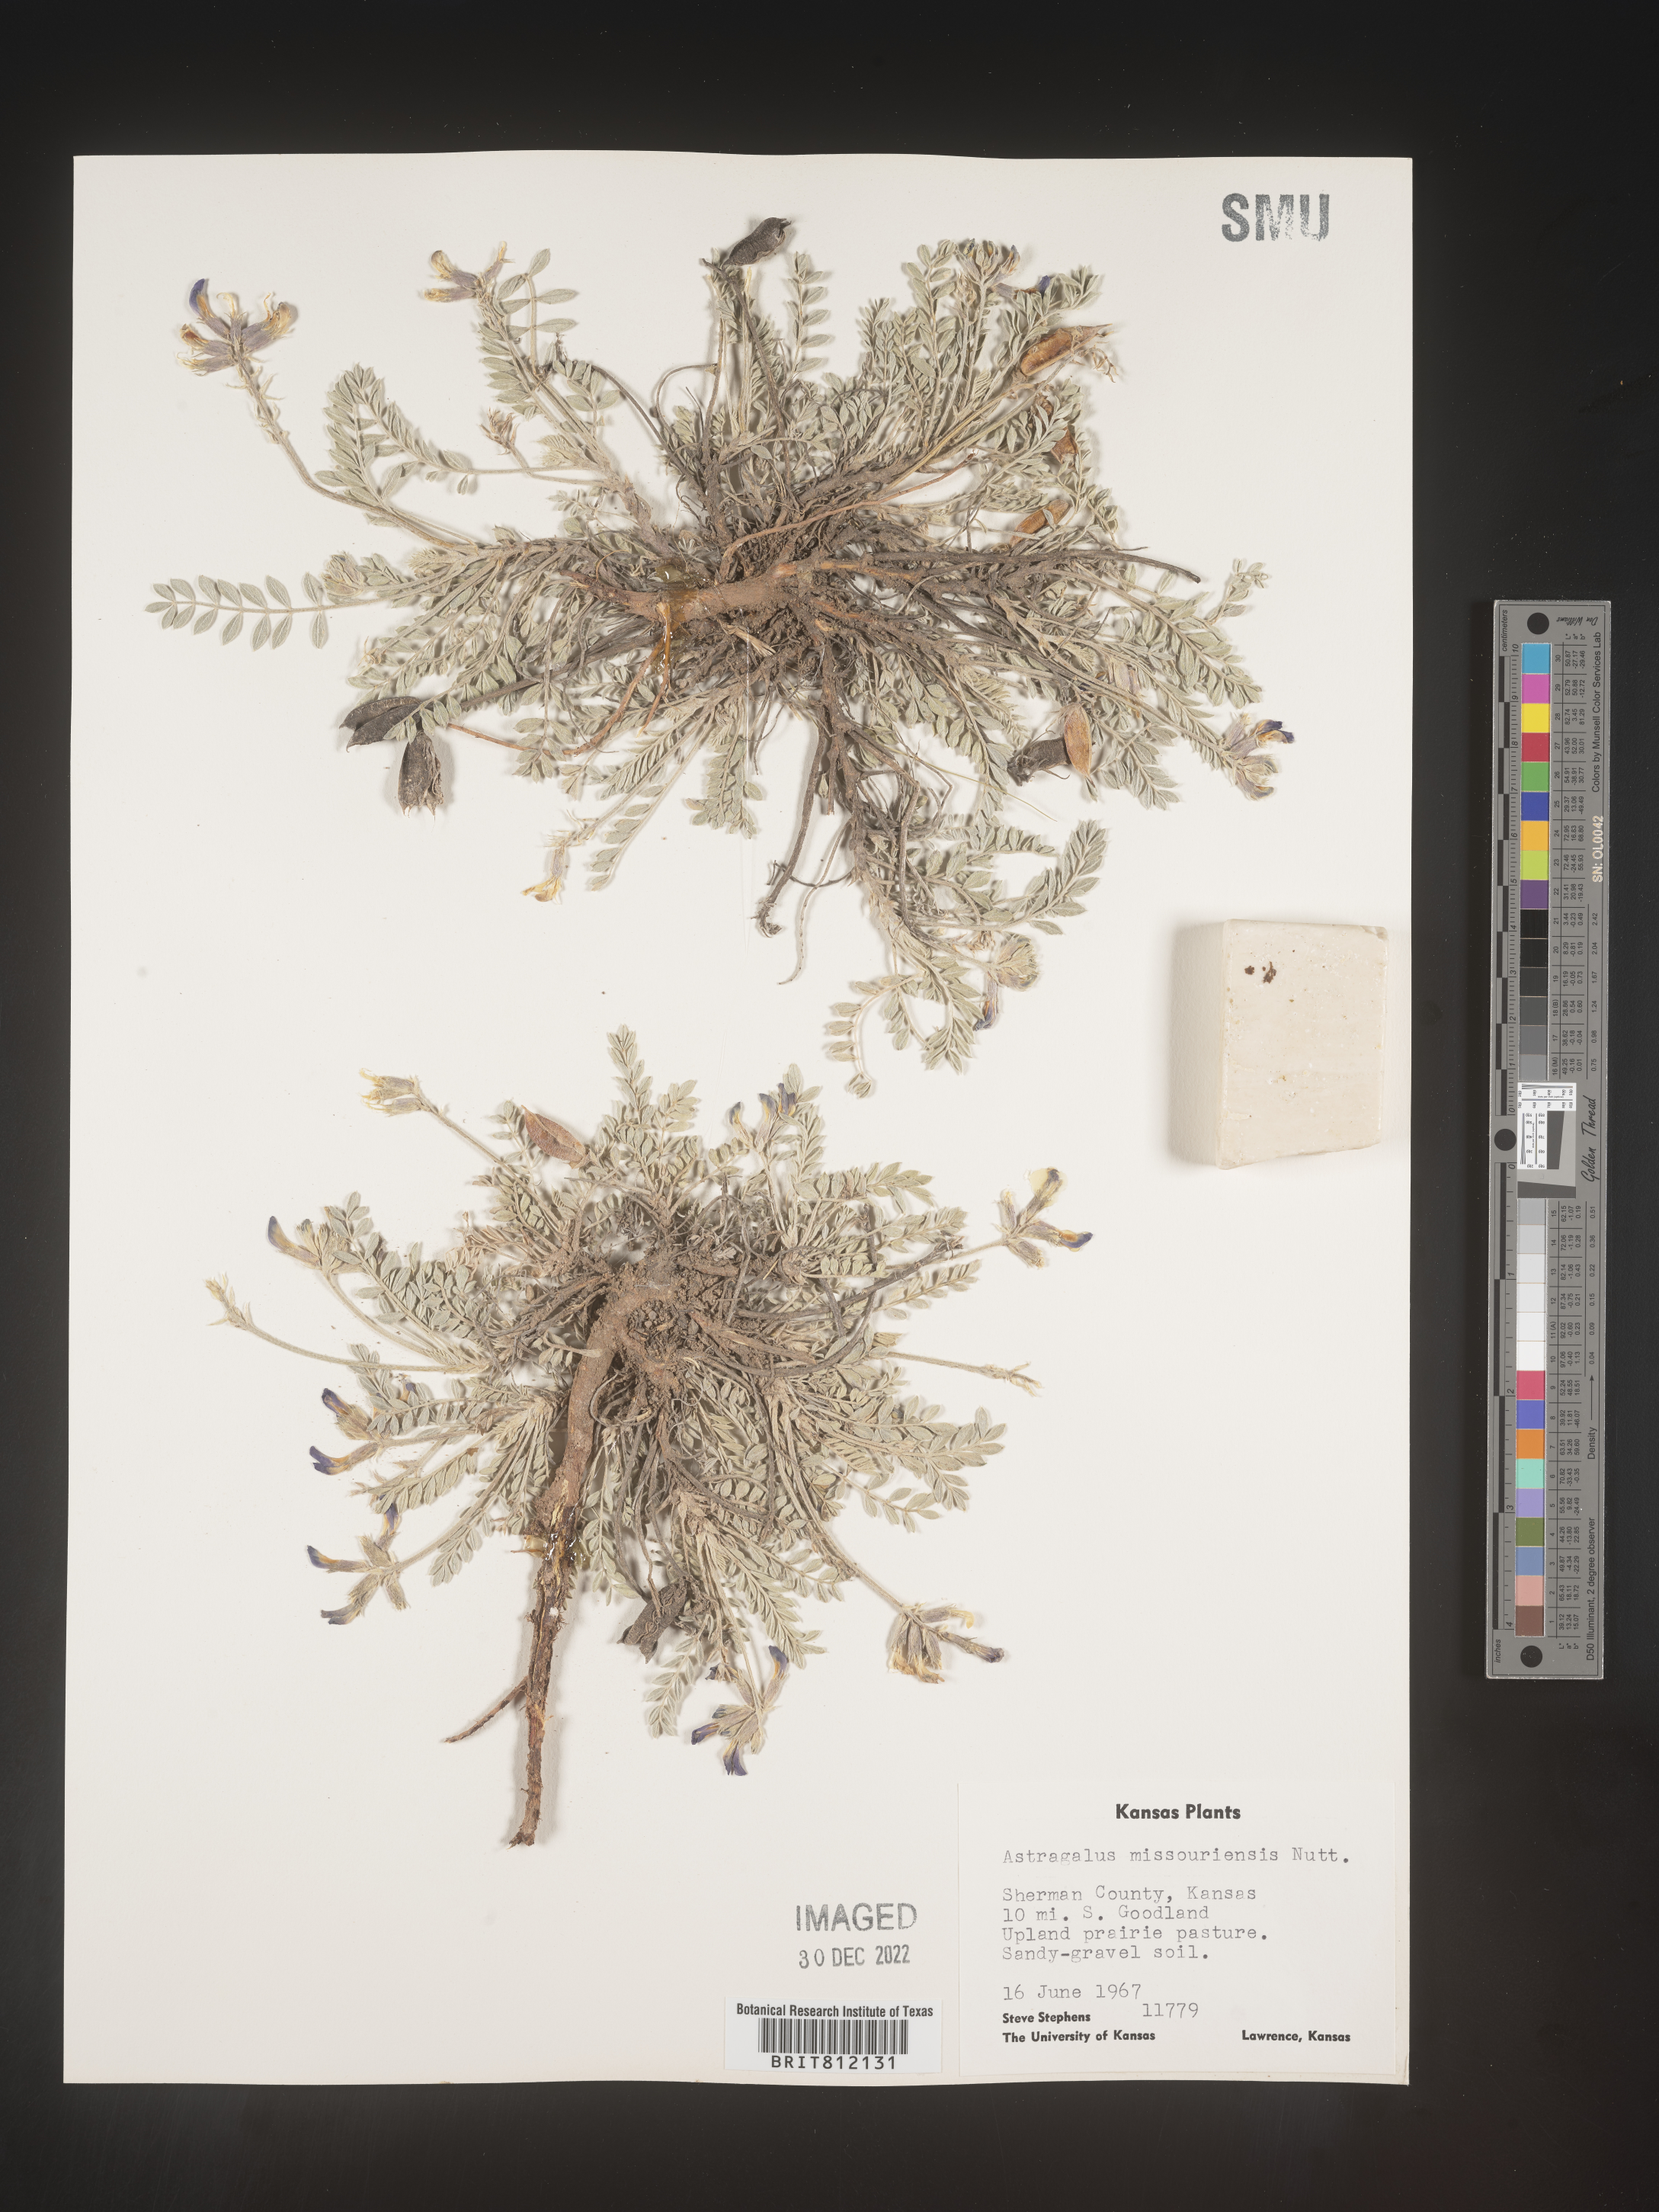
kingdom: Plantae
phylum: Tracheophyta
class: Magnoliopsida
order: Fabales
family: Fabaceae
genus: Astragalus
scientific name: Astragalus missouriensis
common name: Missouri milk-vetch
